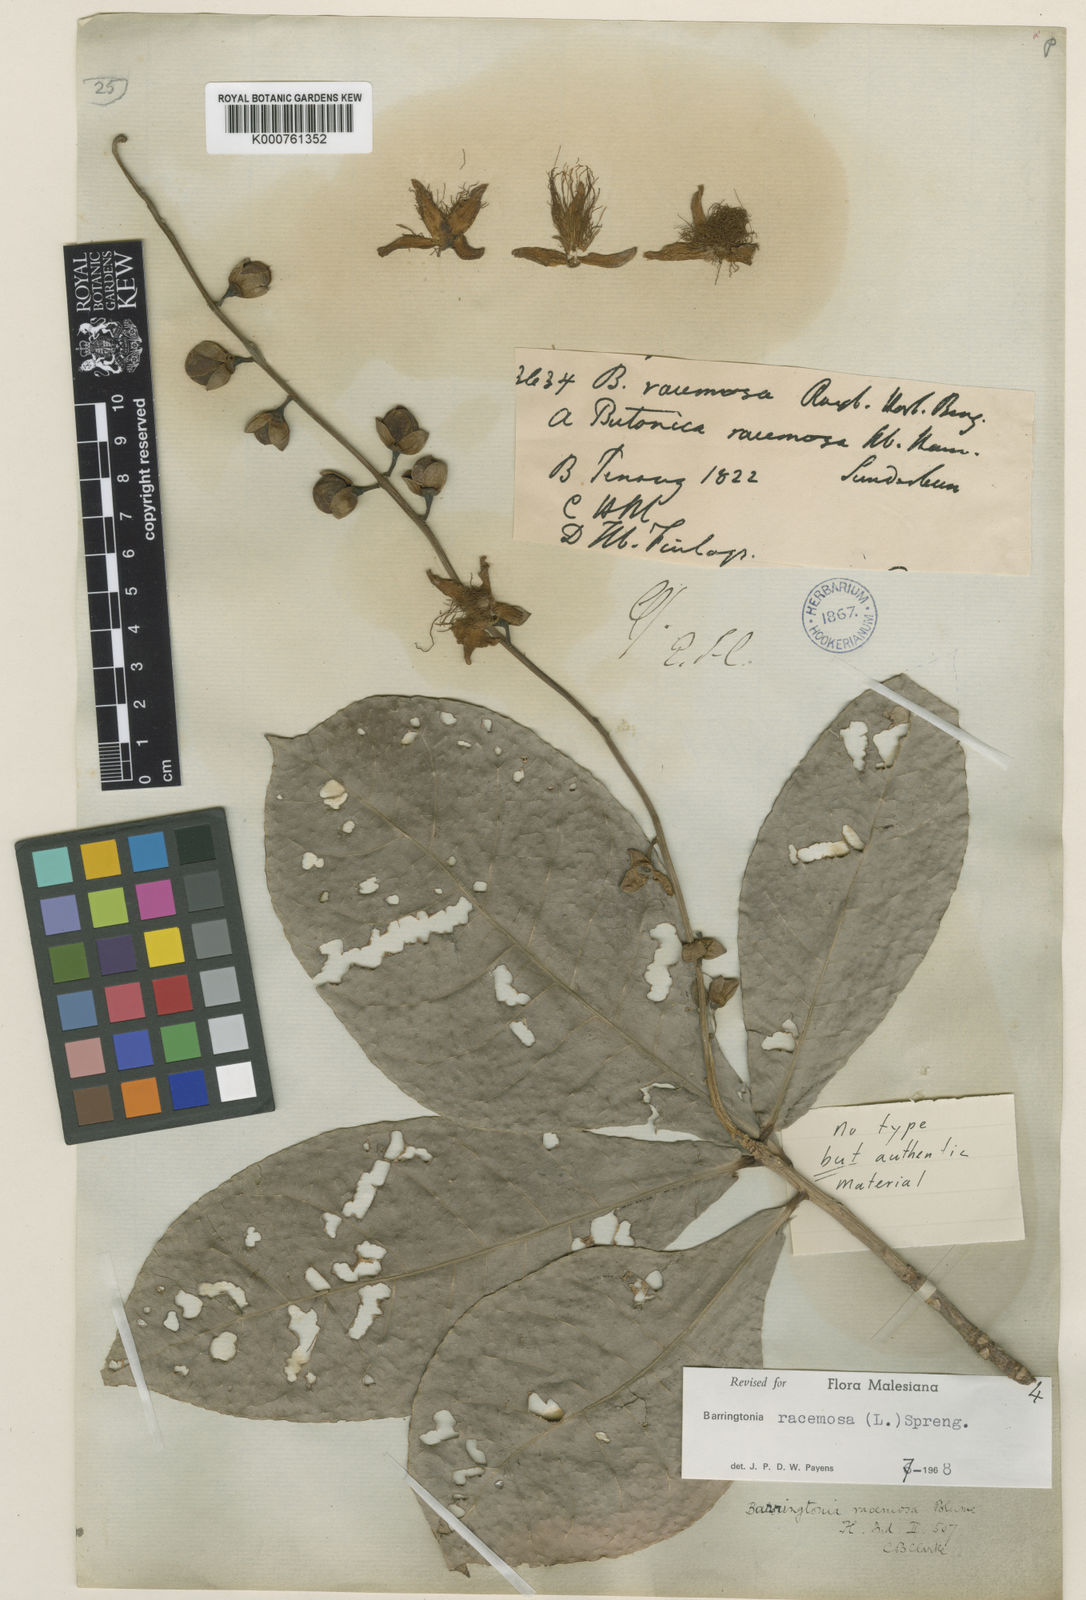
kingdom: Plantae
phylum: Tracheophyta
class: Magnoliopsida
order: Ericales
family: Lecythidaceae
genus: Barringtonia
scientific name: Barringtonia racemosa
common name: Brackwater mangrove
